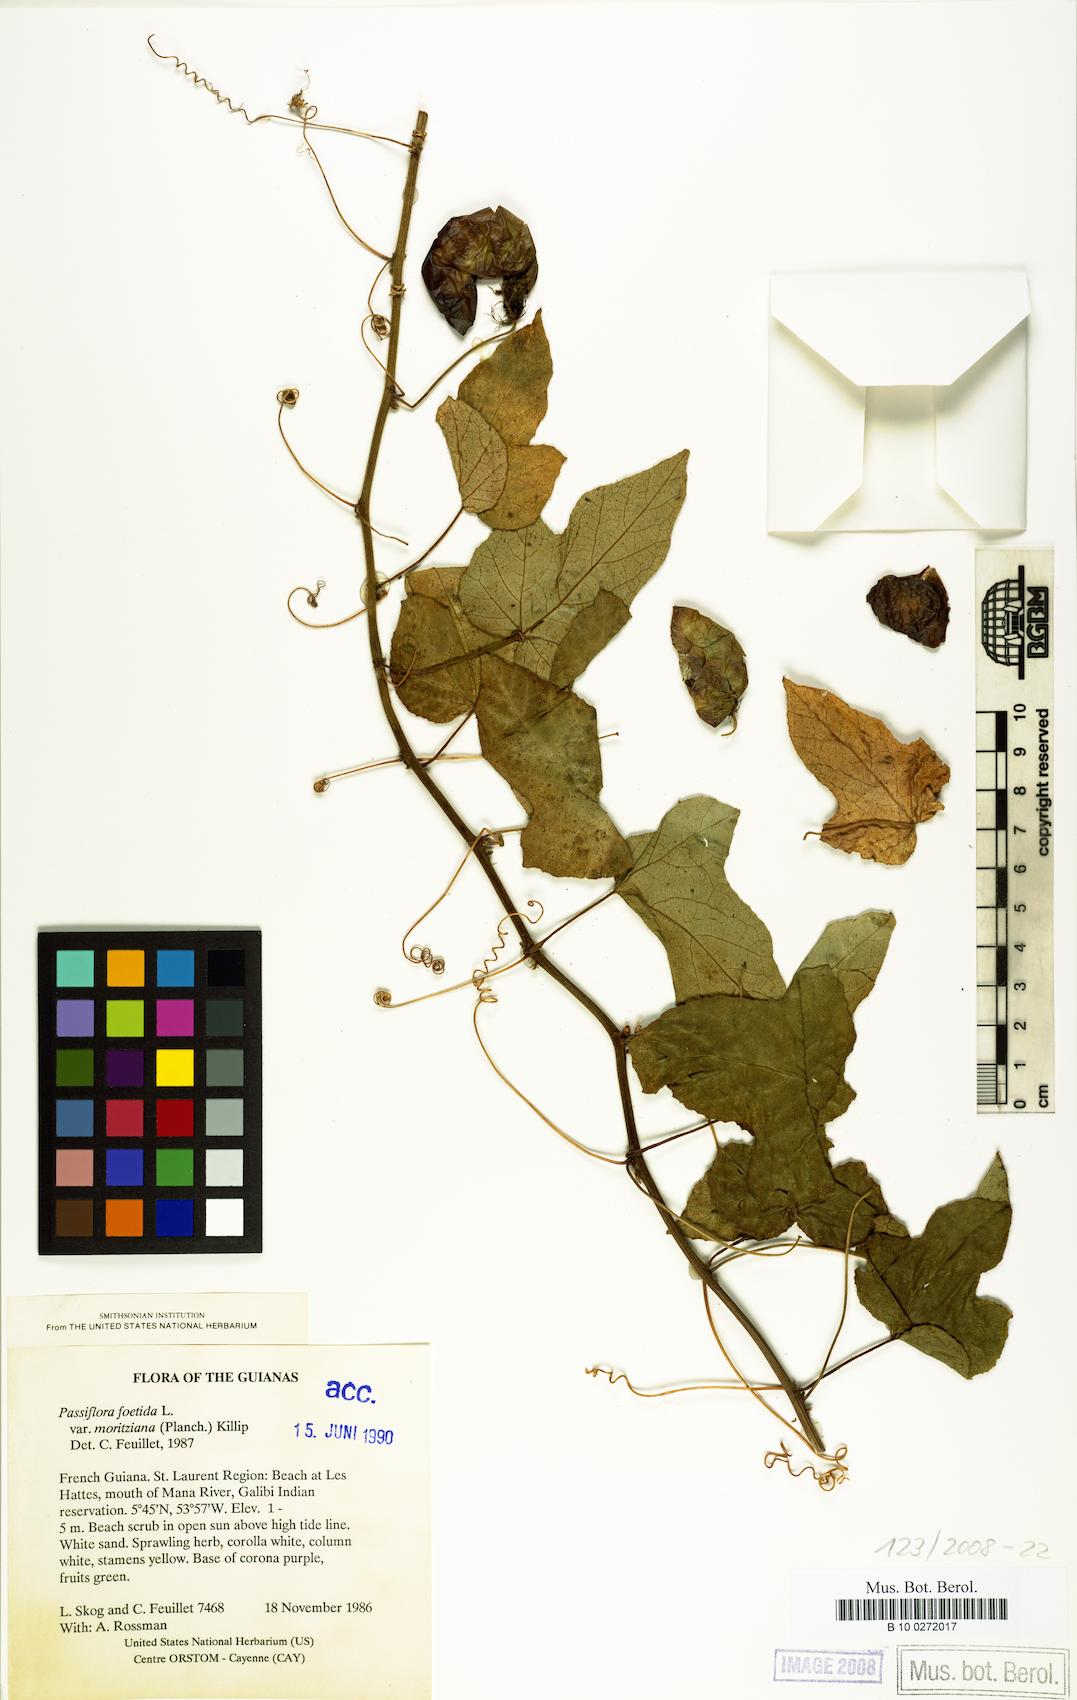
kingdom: Plantae
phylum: Tracheophyta
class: Magnoliopsida
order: Malpighiales
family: Passifloraceae
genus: Passiflora
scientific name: Passiflora foetida
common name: Fetid passionflower
